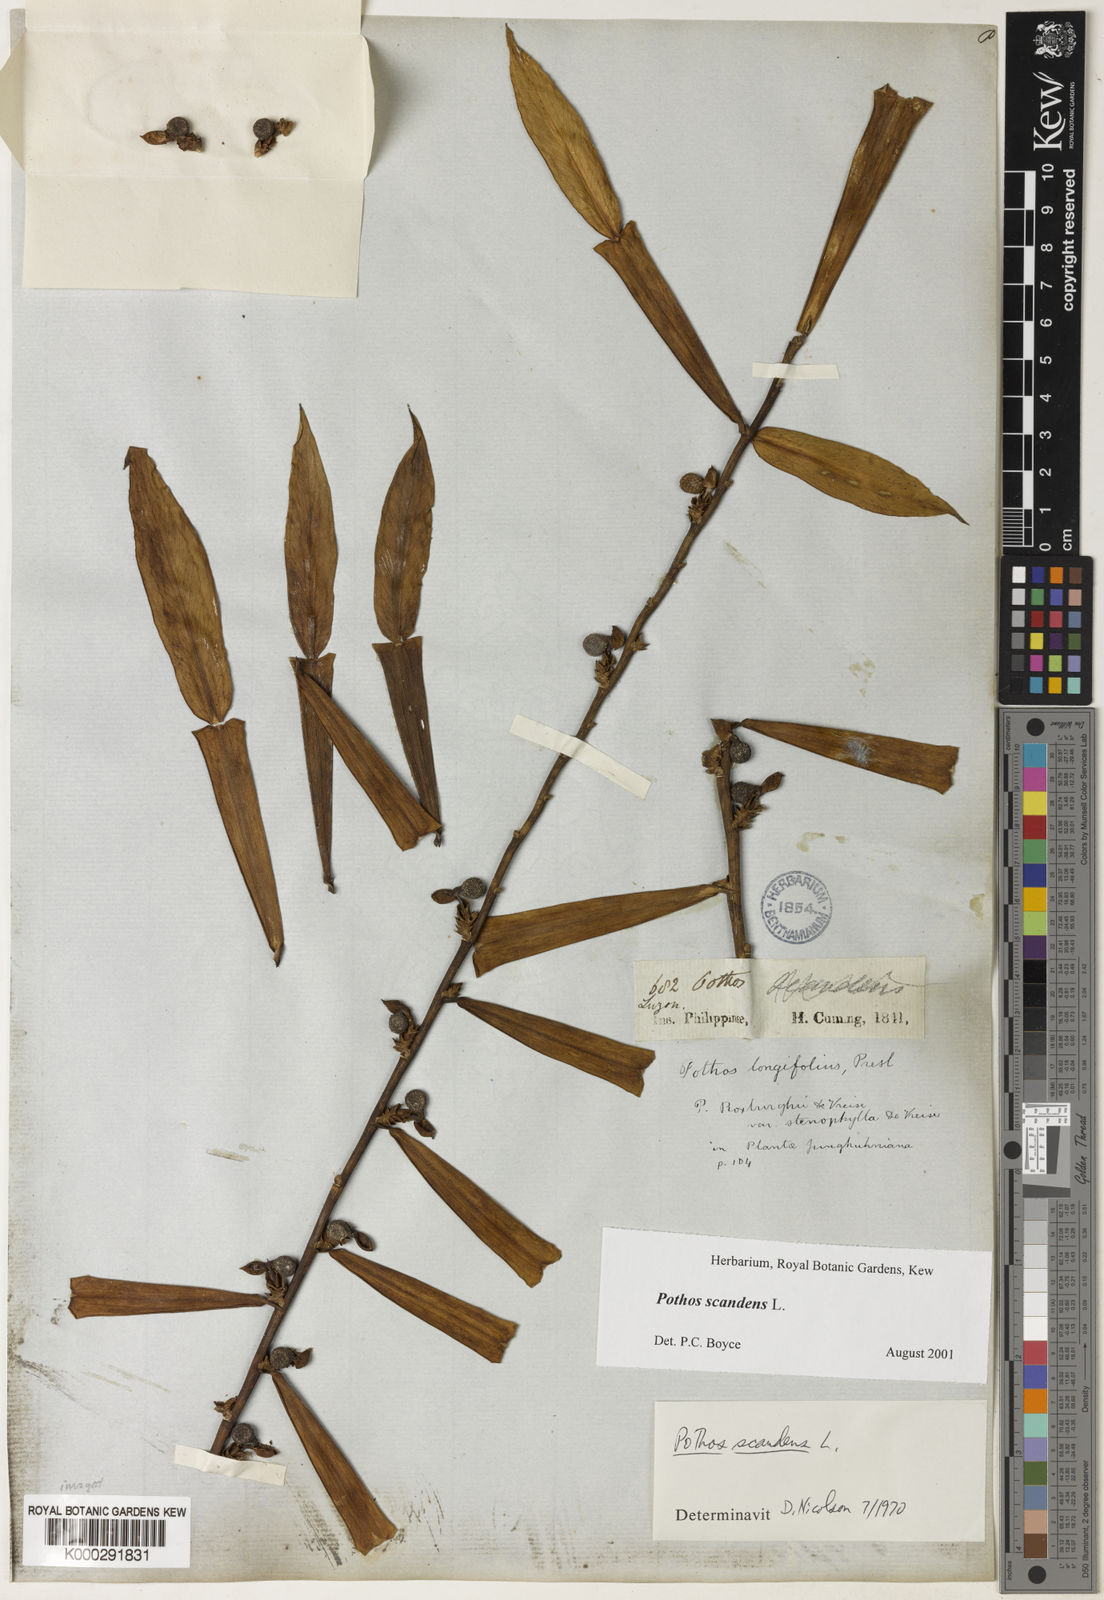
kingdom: Plantae
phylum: Tracheophyta
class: Liliopsida
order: Alismatales
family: Araceae
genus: Pothos
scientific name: Pothos scandens
